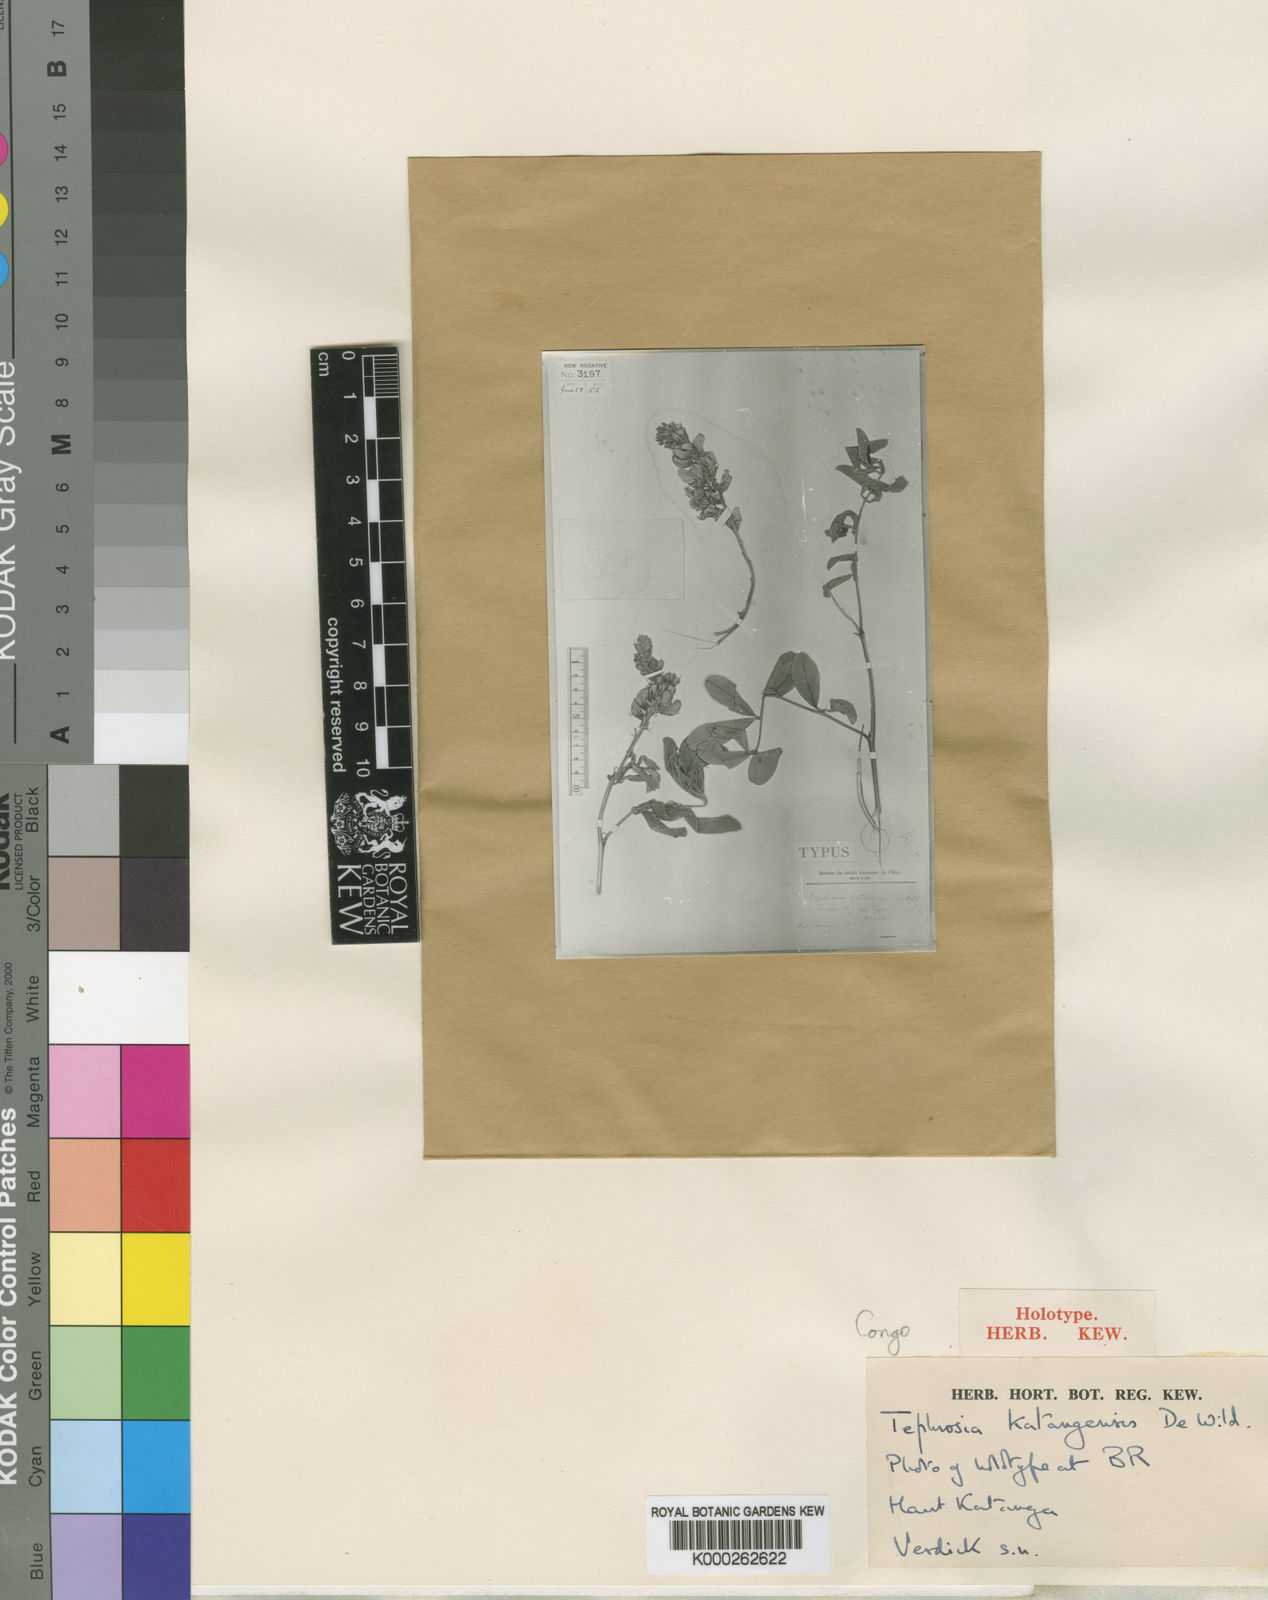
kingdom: Plantae
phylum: Tracheophyta
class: Magnoliopsida
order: Fabales
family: Fabaceae
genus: Tephrosia
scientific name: Tephrosia katangensis
